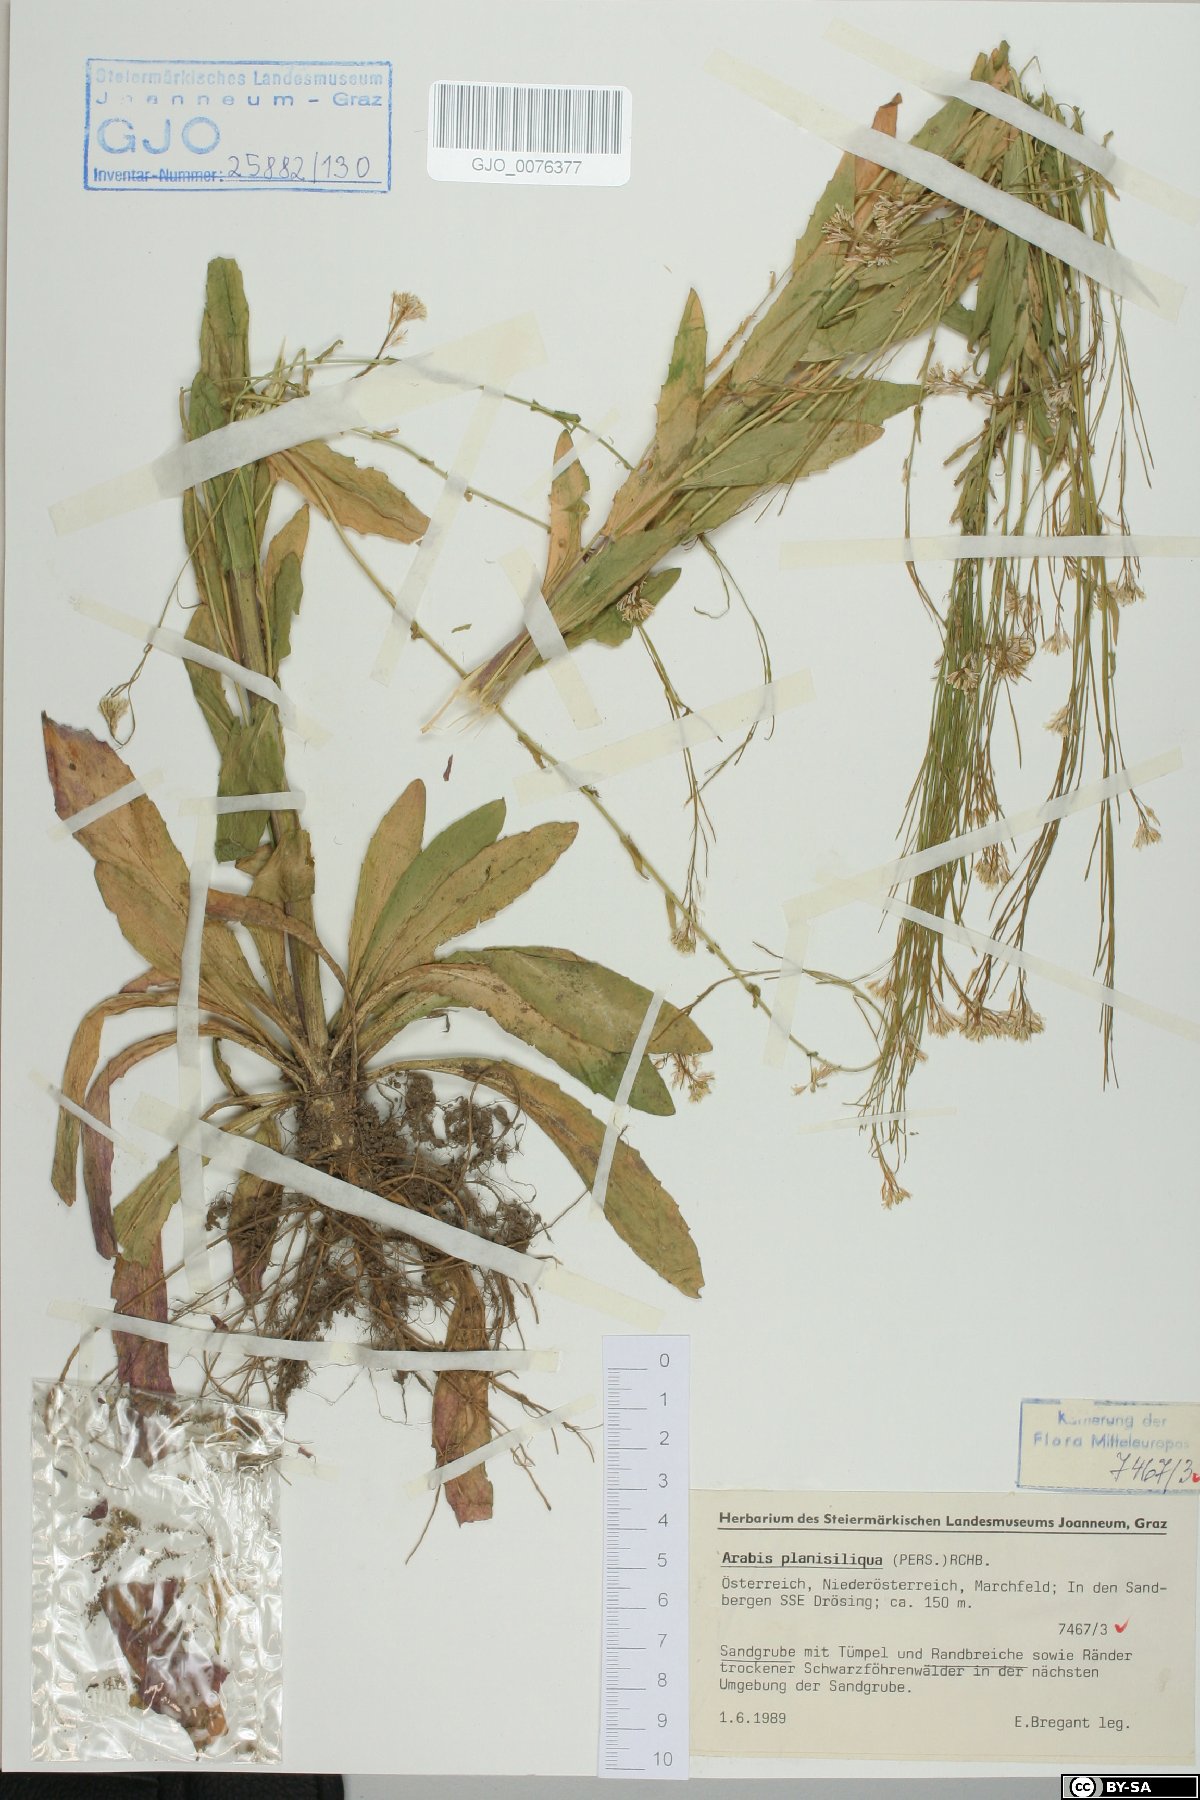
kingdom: Plantae
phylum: Tracheophyta
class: Magnoliopsida
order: Brassicales
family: Brassicaceae
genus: Arabis
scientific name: Arabis planisiliqua
